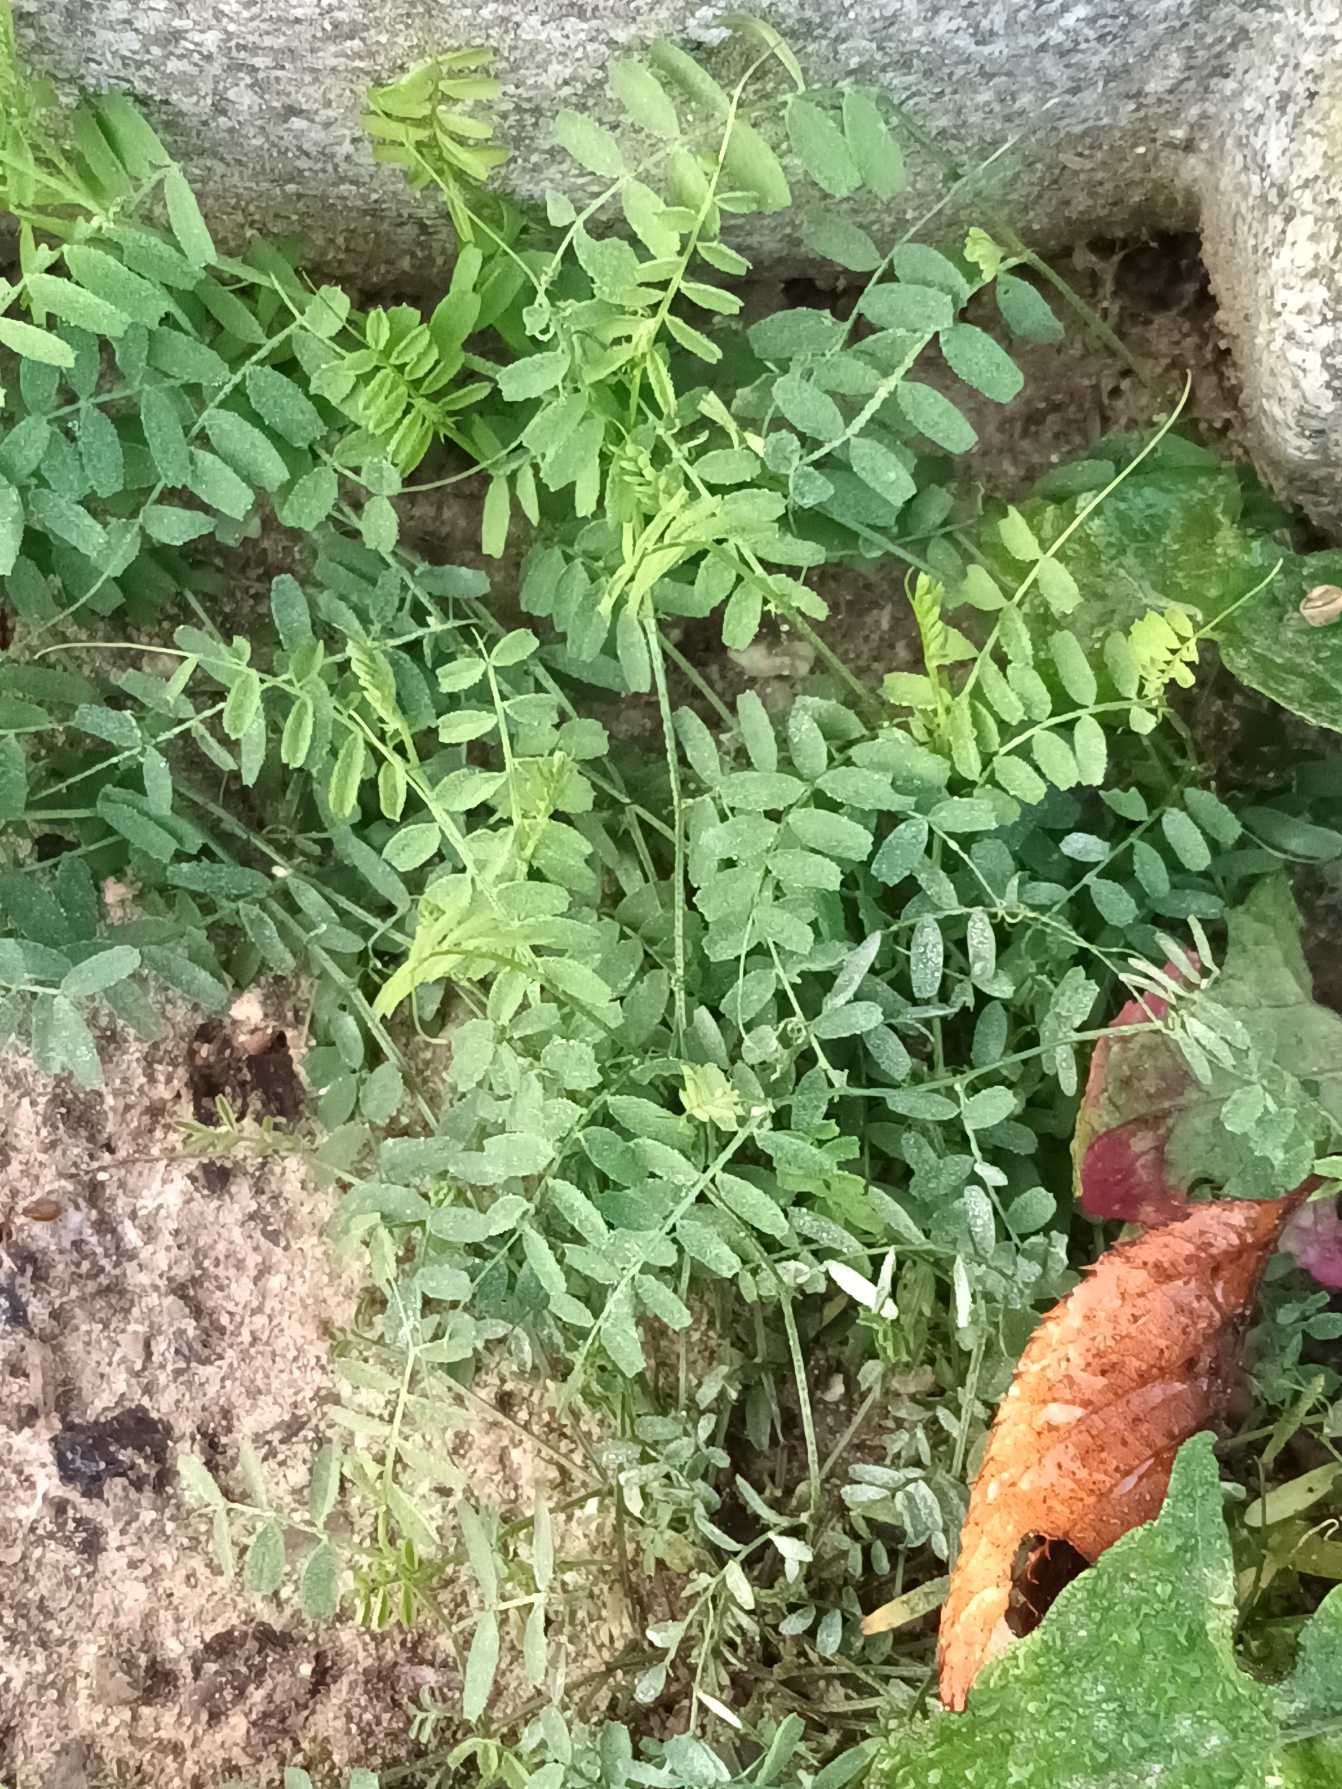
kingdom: Plantae
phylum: Tracheophyta
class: Magnoliopsida
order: Fabales
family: Fabaceae
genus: Vicia
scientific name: Vicia hirsuta
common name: Tofrøet vikke
